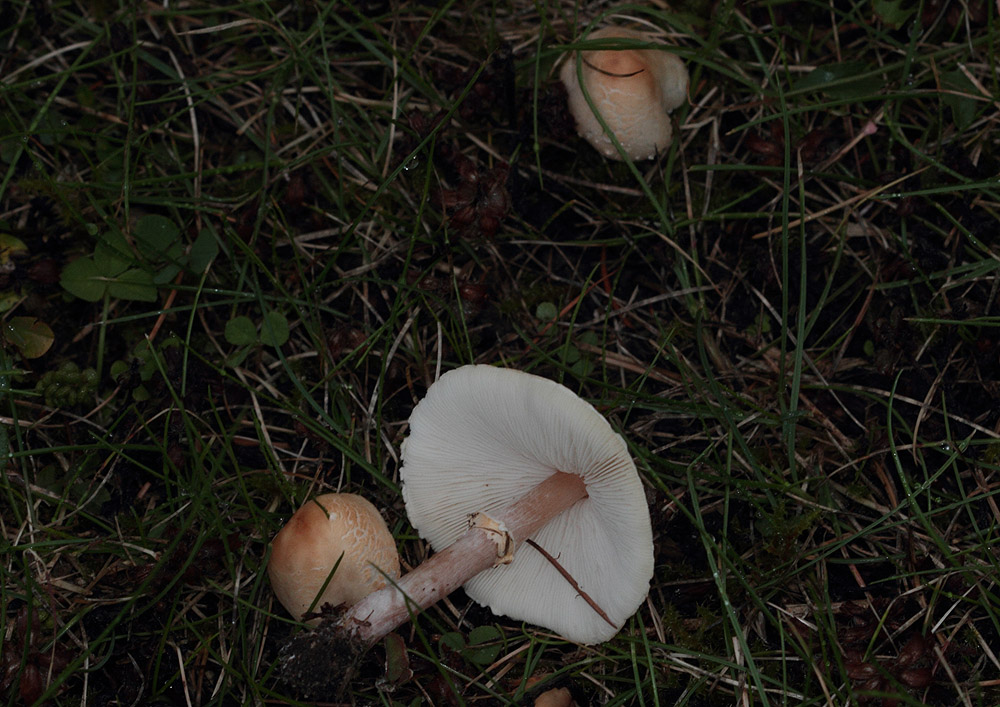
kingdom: Fungi
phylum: Basidiomycota
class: Agaricomycetes
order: Agaricales
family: Agaricaceae
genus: Lepiota
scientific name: Lepiota cristata
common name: stinkende parasolhat
